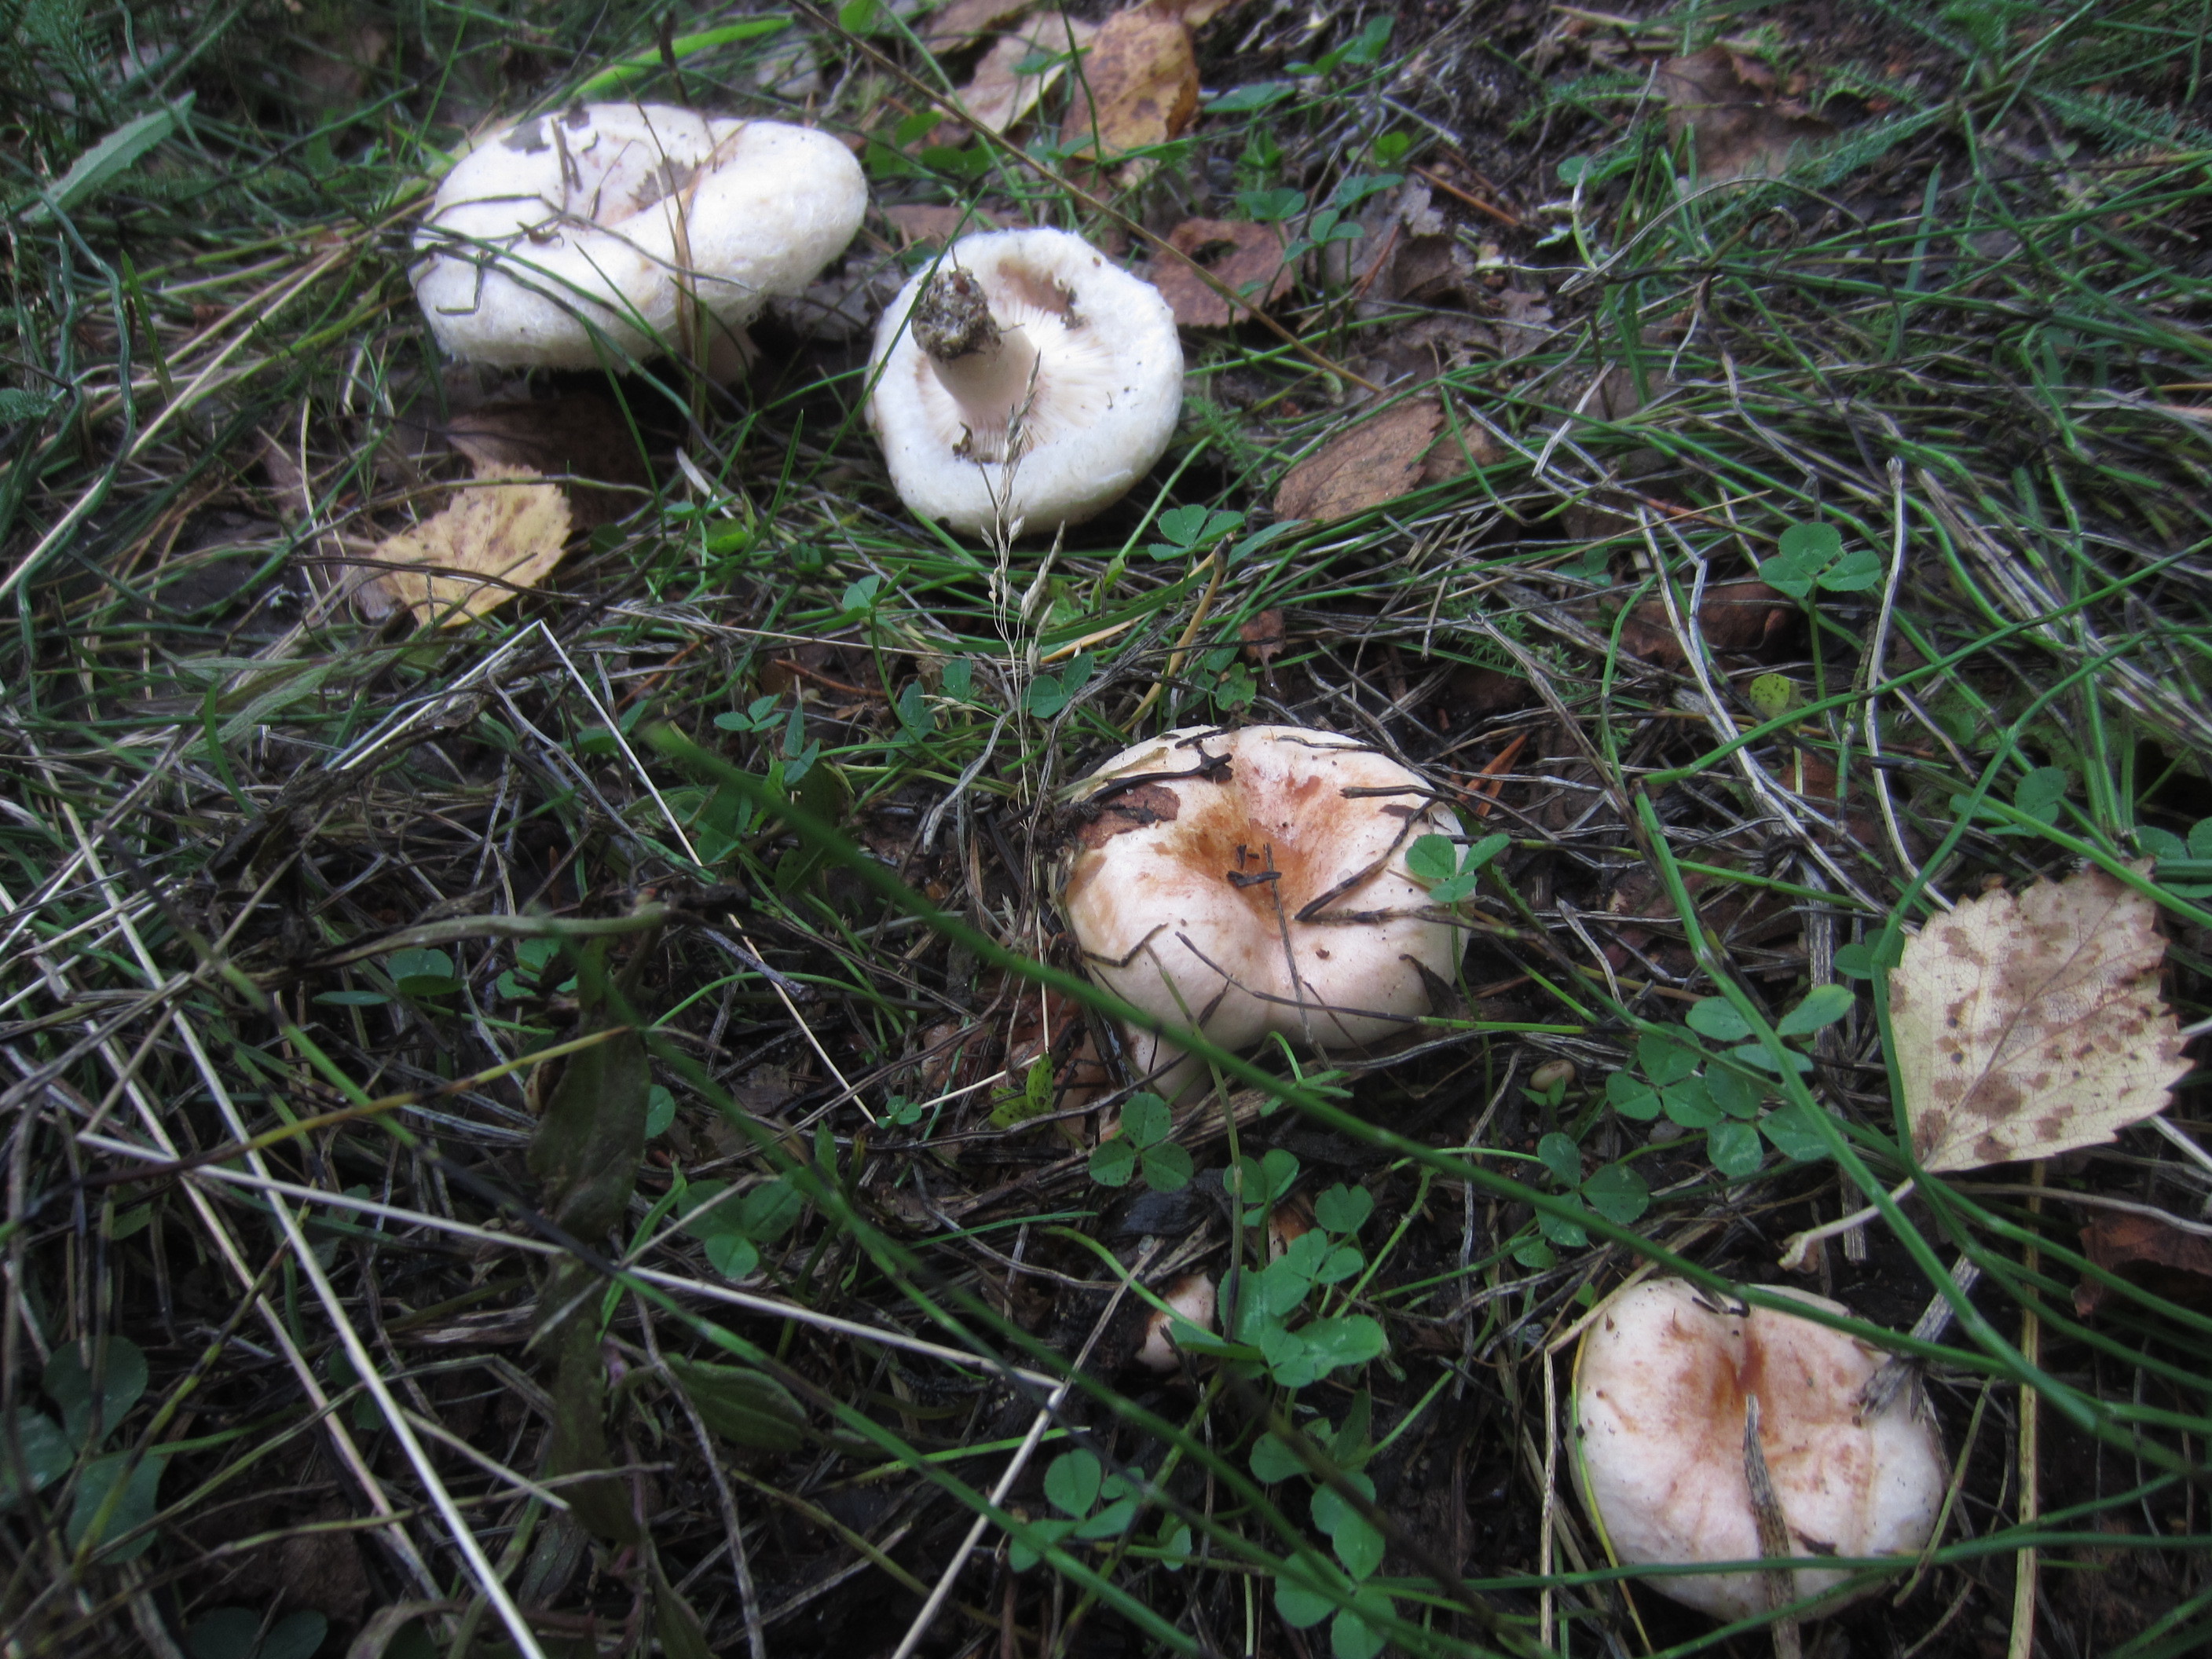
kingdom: Fungi
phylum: Basidiomycota
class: Agaricomycetes
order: Russulales
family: Russulaceae
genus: Lactarius
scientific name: Lactarius pubescens
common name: Bearded milkcap
